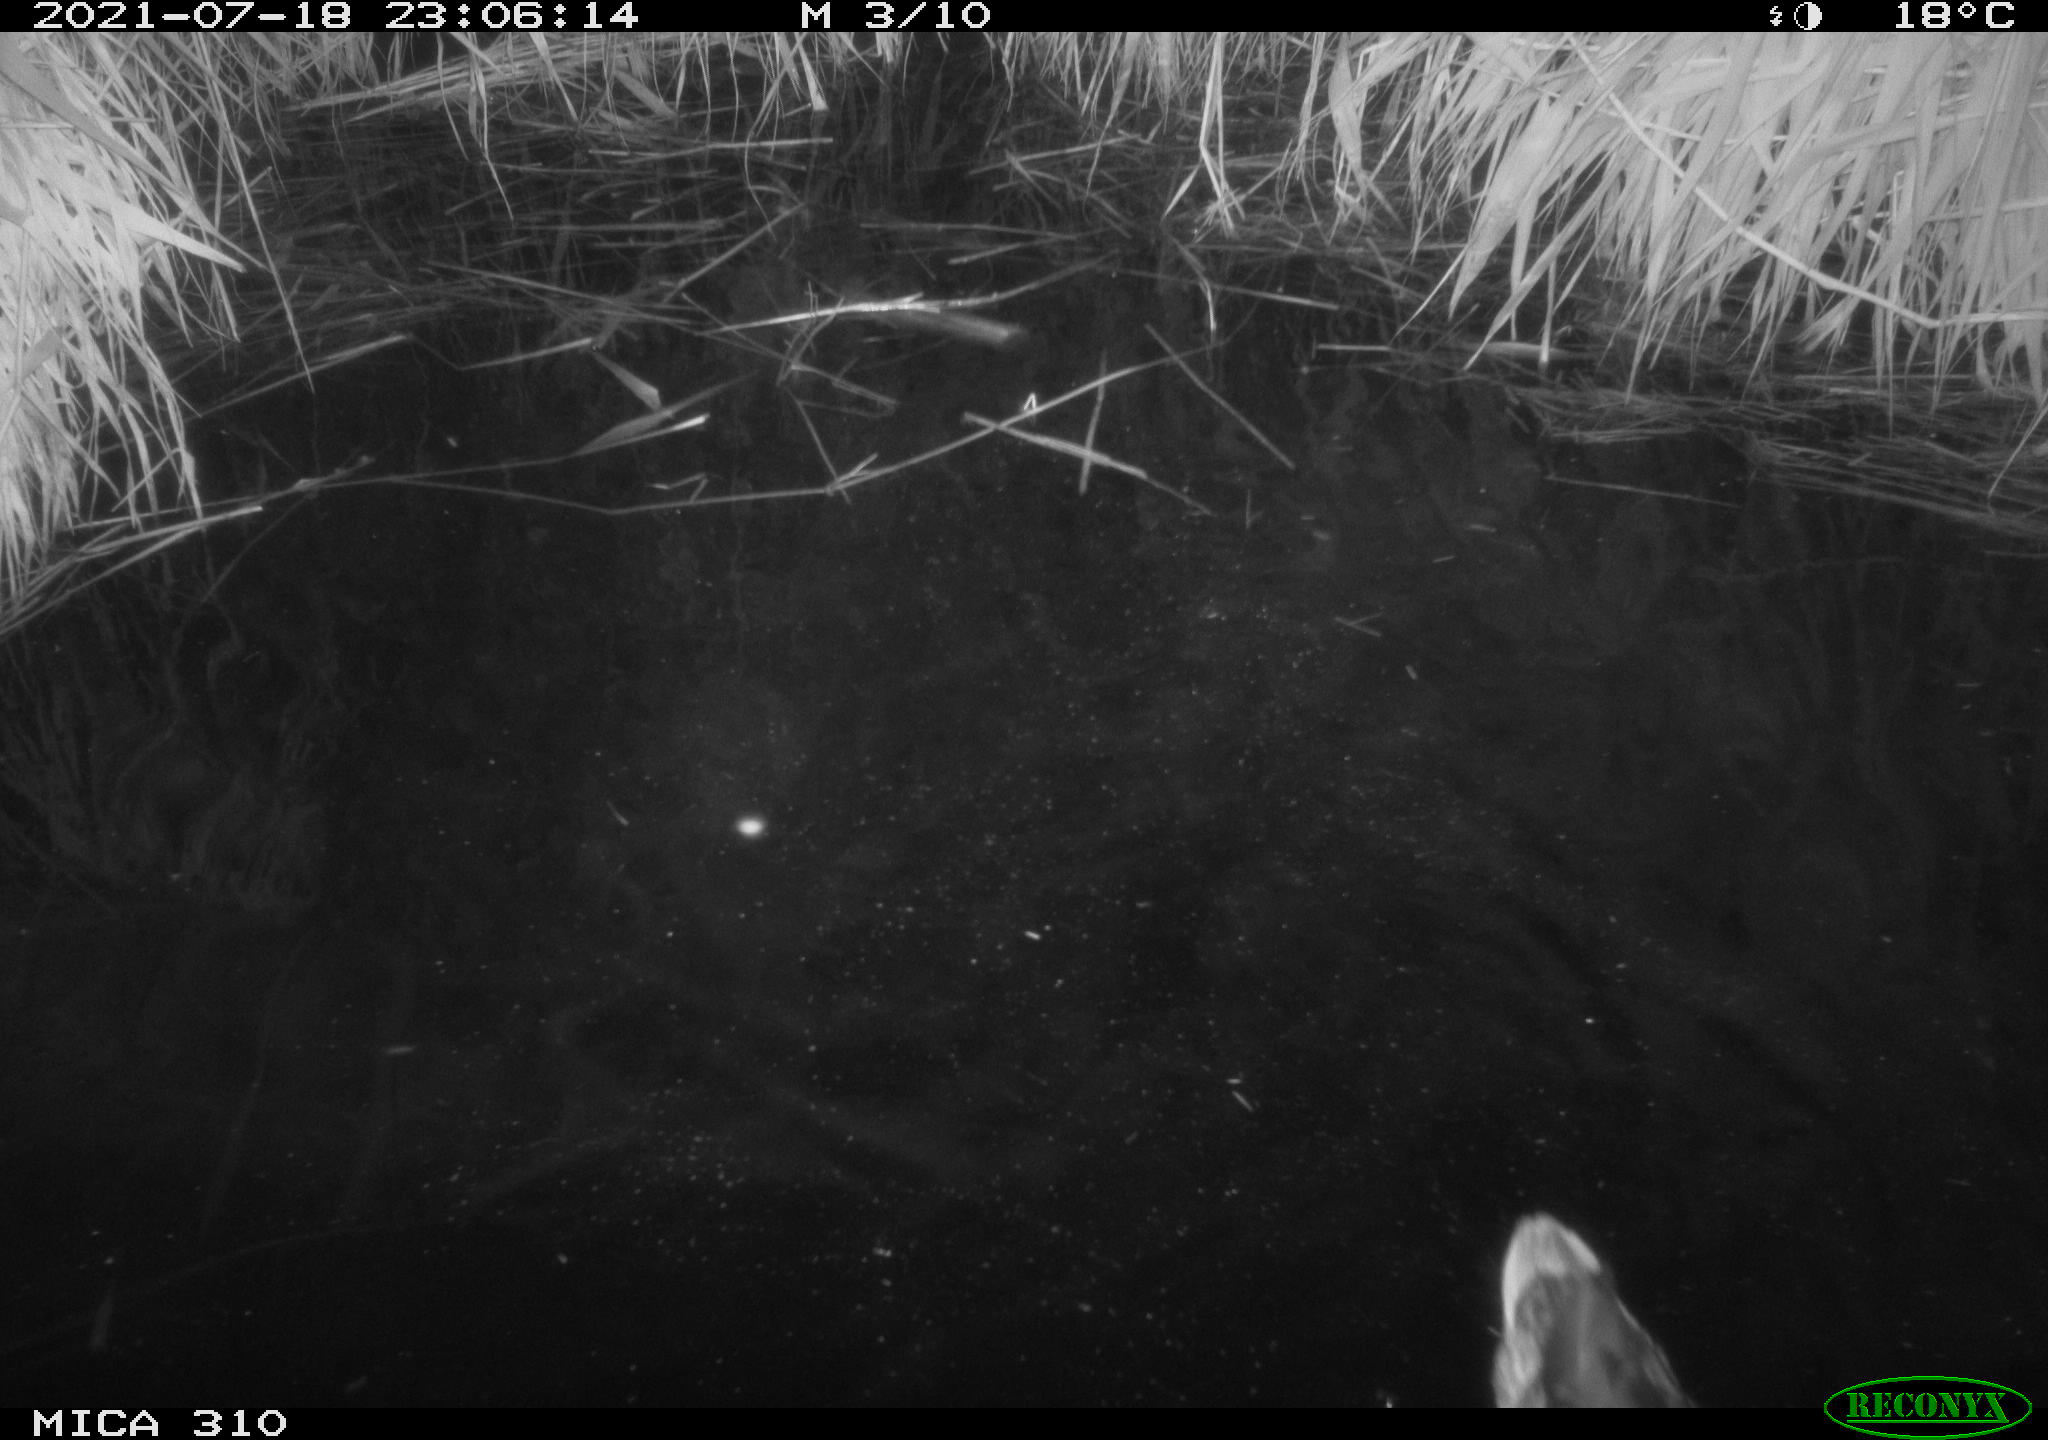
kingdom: Animalia
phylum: Chordata
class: Aves
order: Anseriformes
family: Anatidae
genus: Anas
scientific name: Anas platyrhynchos
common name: Mallard
